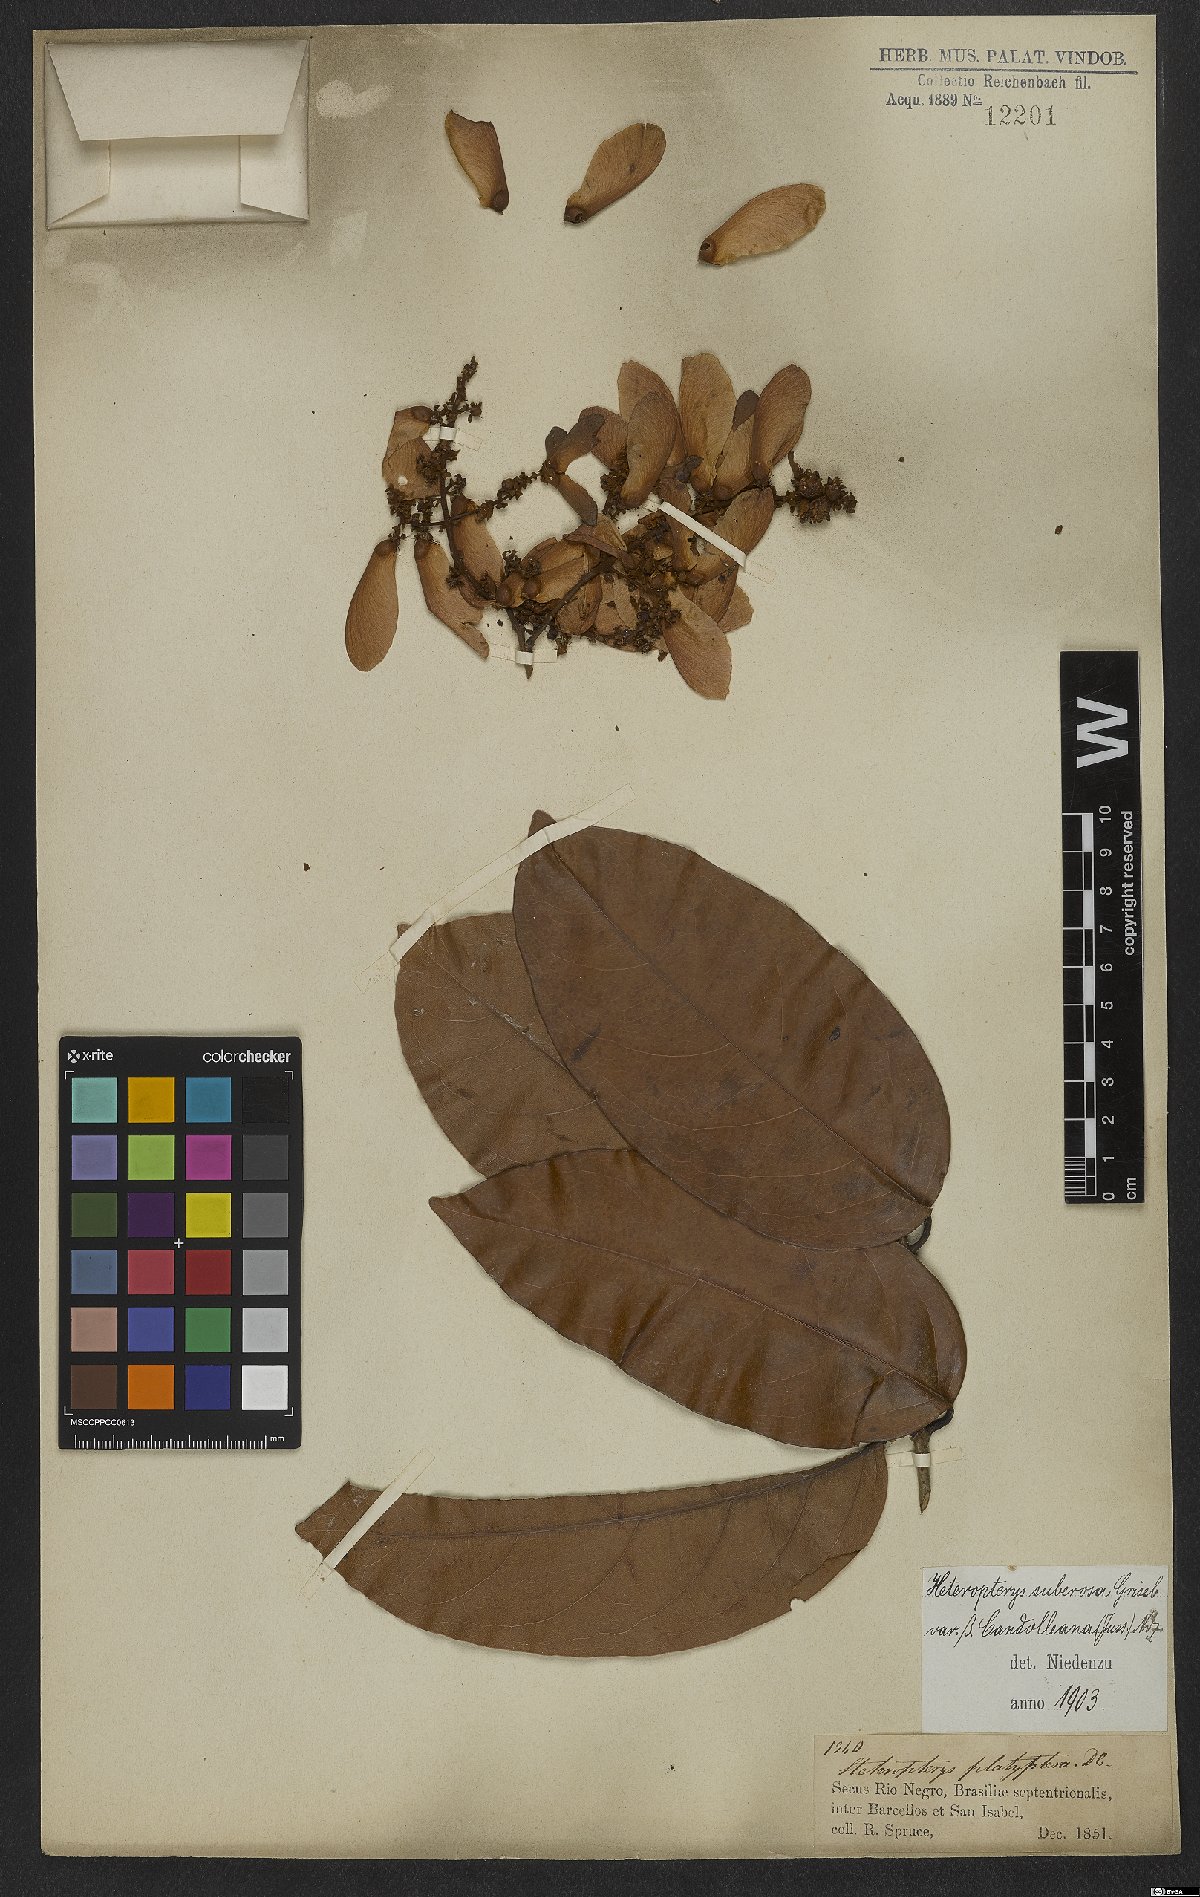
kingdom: Plantae
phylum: Tracheophyta
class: Magnoliopsida
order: Malpighiales
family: Malpighiaceae
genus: Heteropterys
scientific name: Heteropterys nervosa
